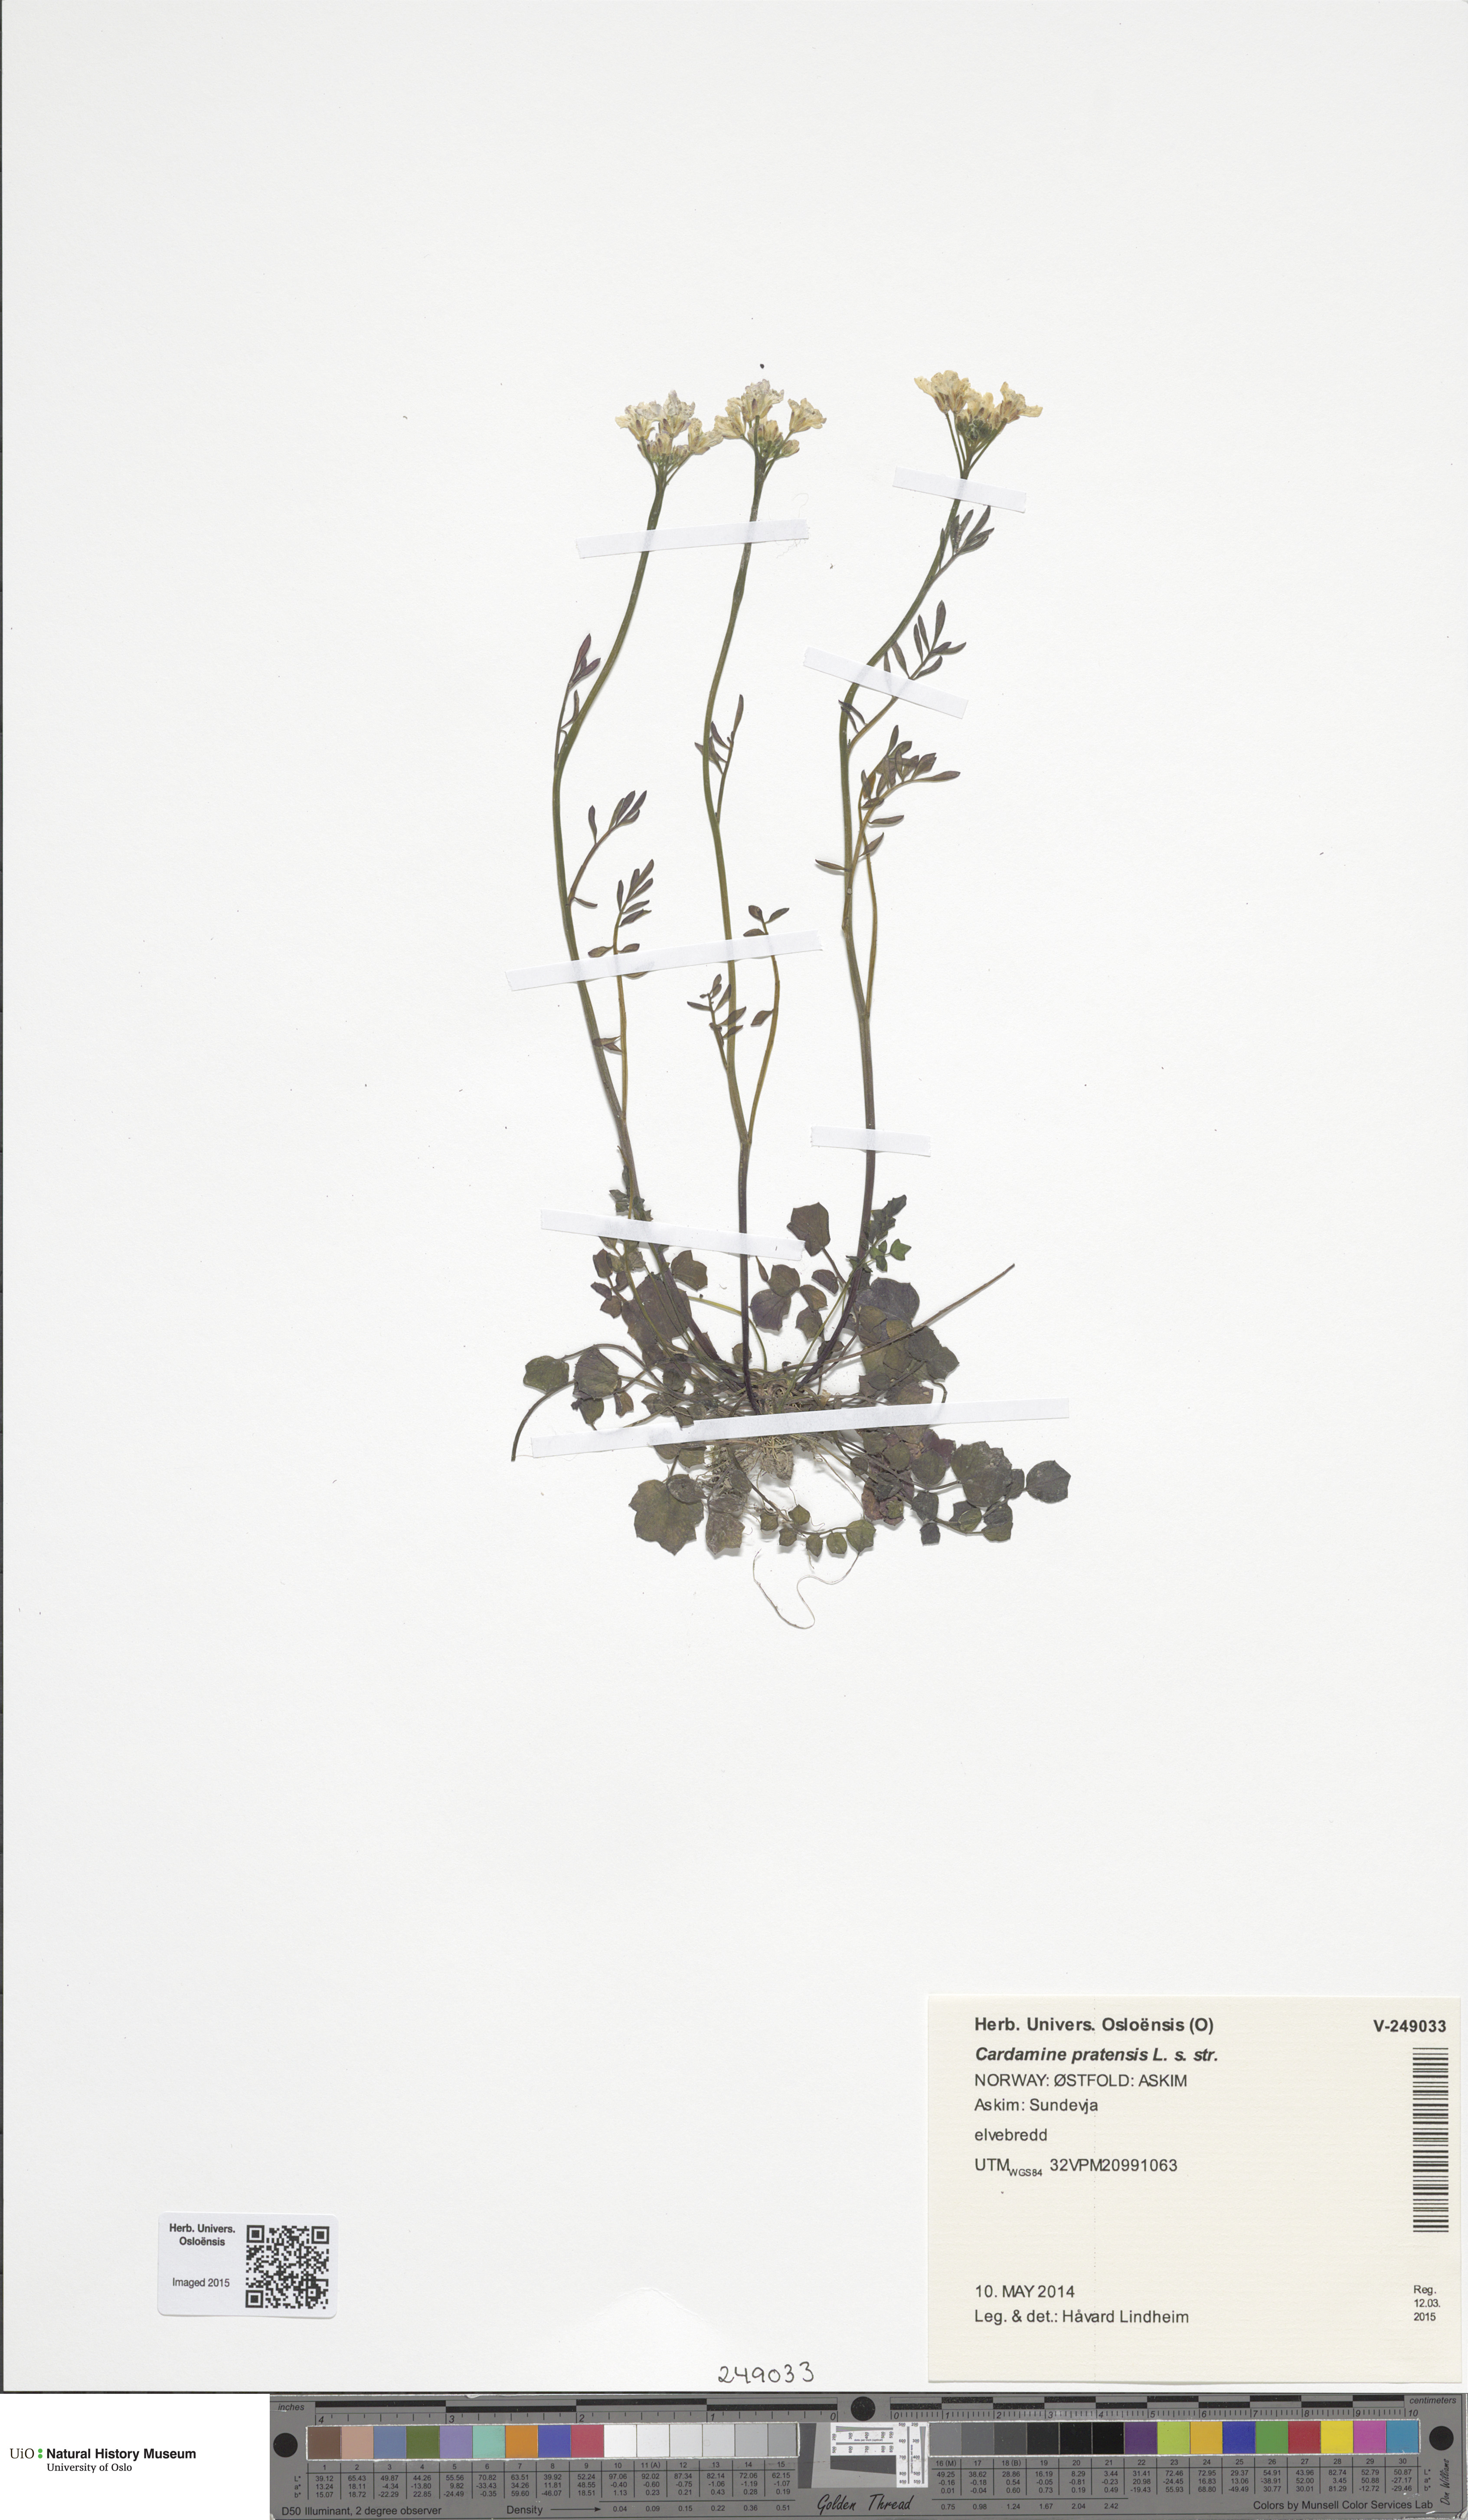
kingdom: Plantae
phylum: Tracheophyta
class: Magnoliopsida
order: Brassicales
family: Brassicaceae
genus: Cardamine
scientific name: Cardamine pratensis
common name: Cuckoo flower
